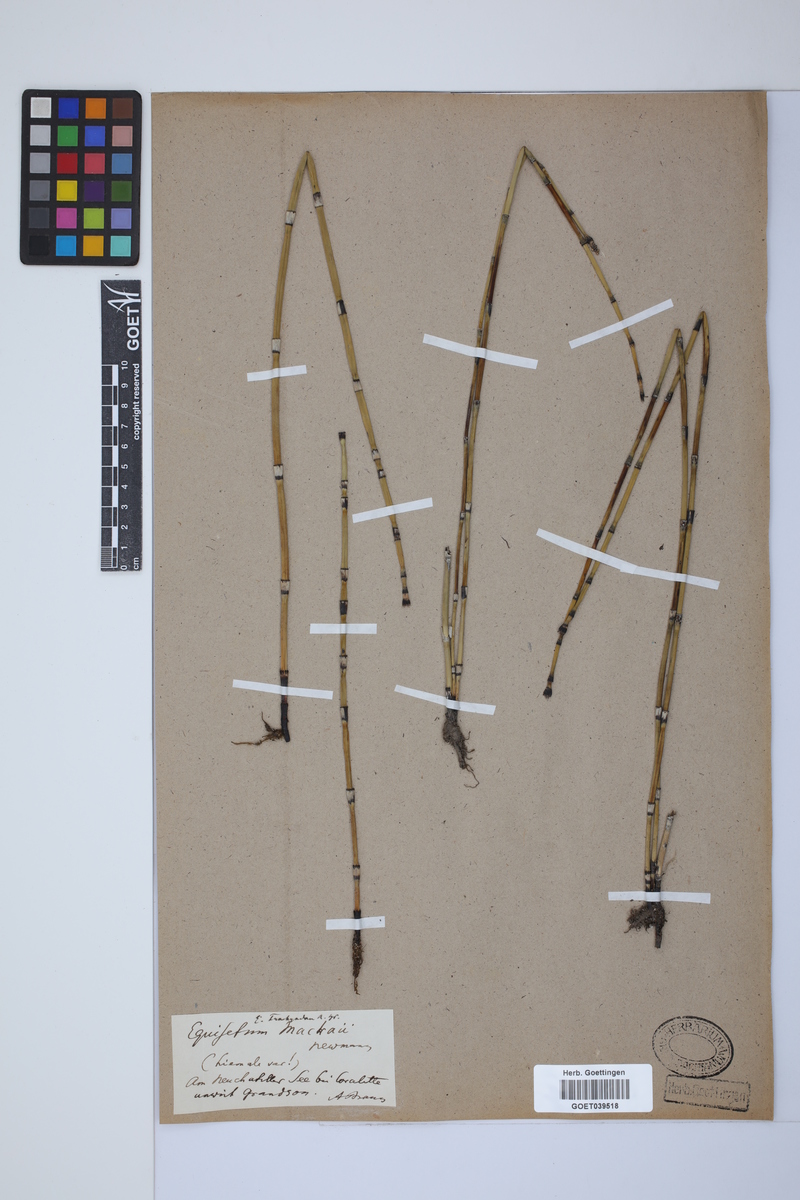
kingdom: Plantae
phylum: Tracheophyta
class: Polypodiopsida
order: Equisetales
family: Equisetaceae
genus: Equisetum
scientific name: Equisetum trachyodon
